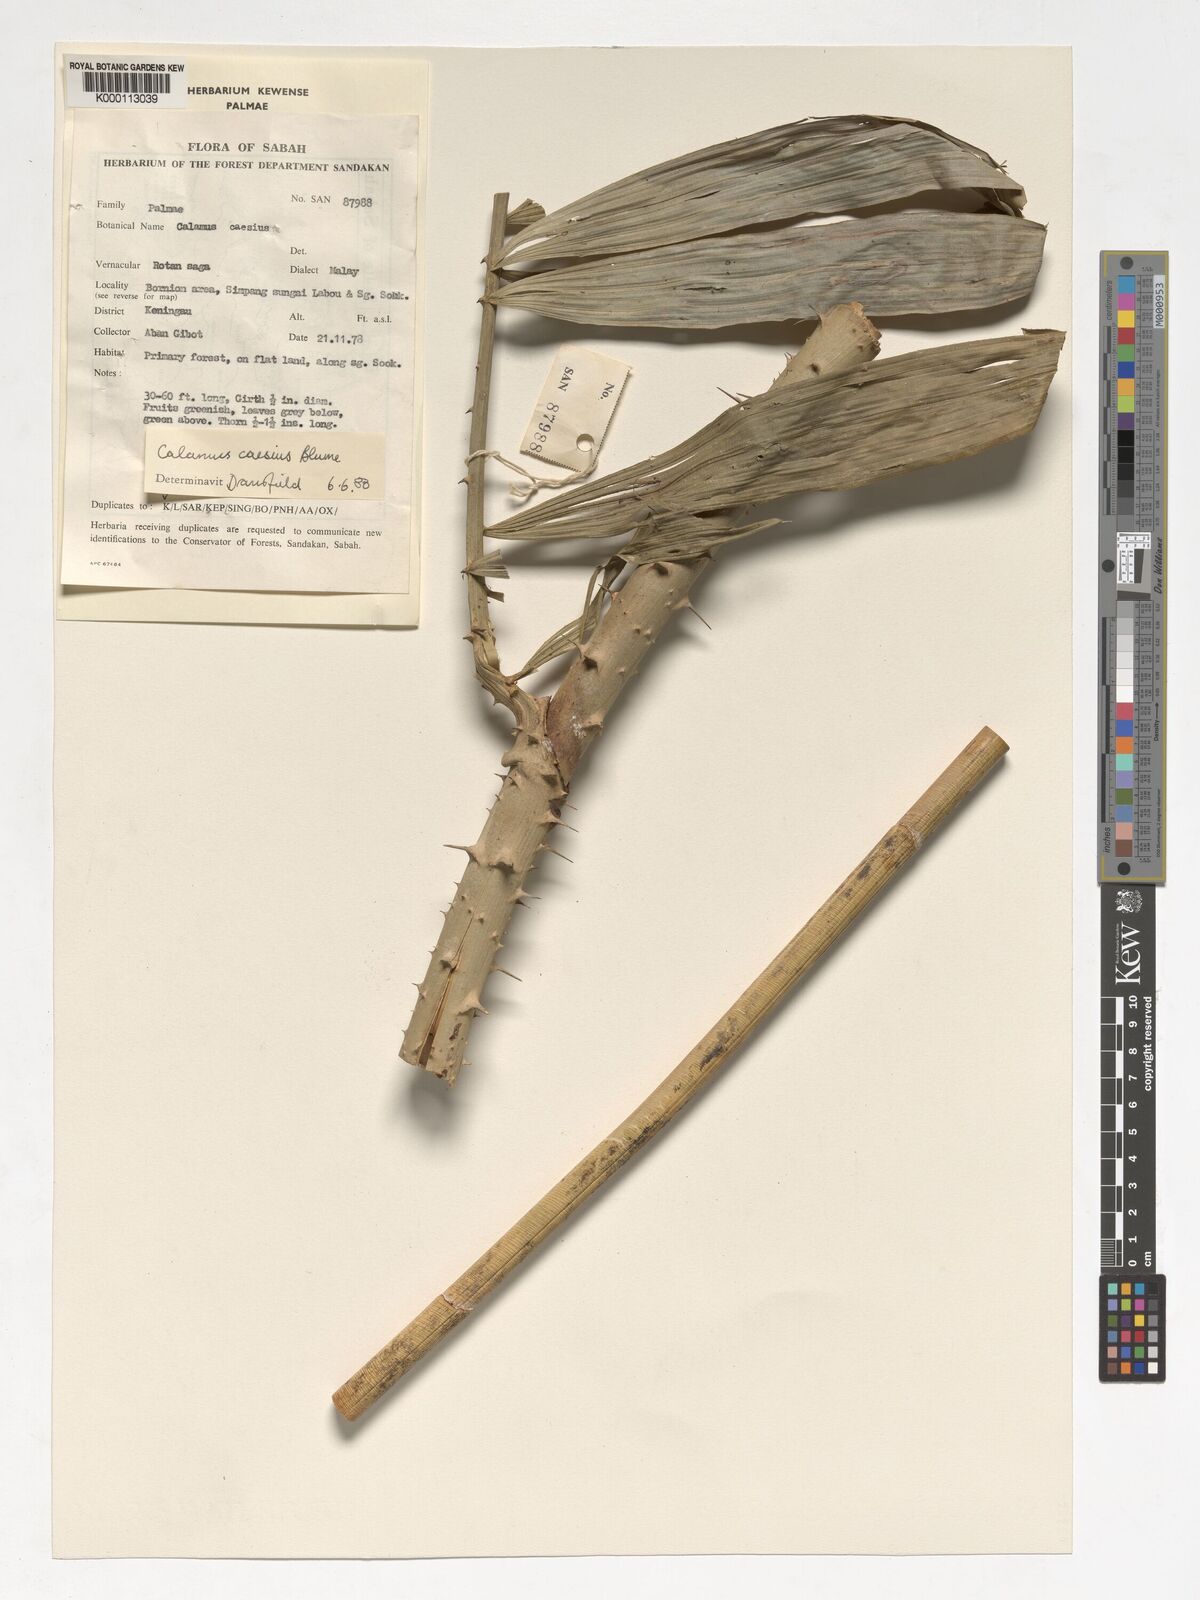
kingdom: Plantae
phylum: Tracheophyta
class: Liliopsida
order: Arecales
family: Arecaceae
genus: Calamus
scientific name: Calamus caesius
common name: Rattan palm
